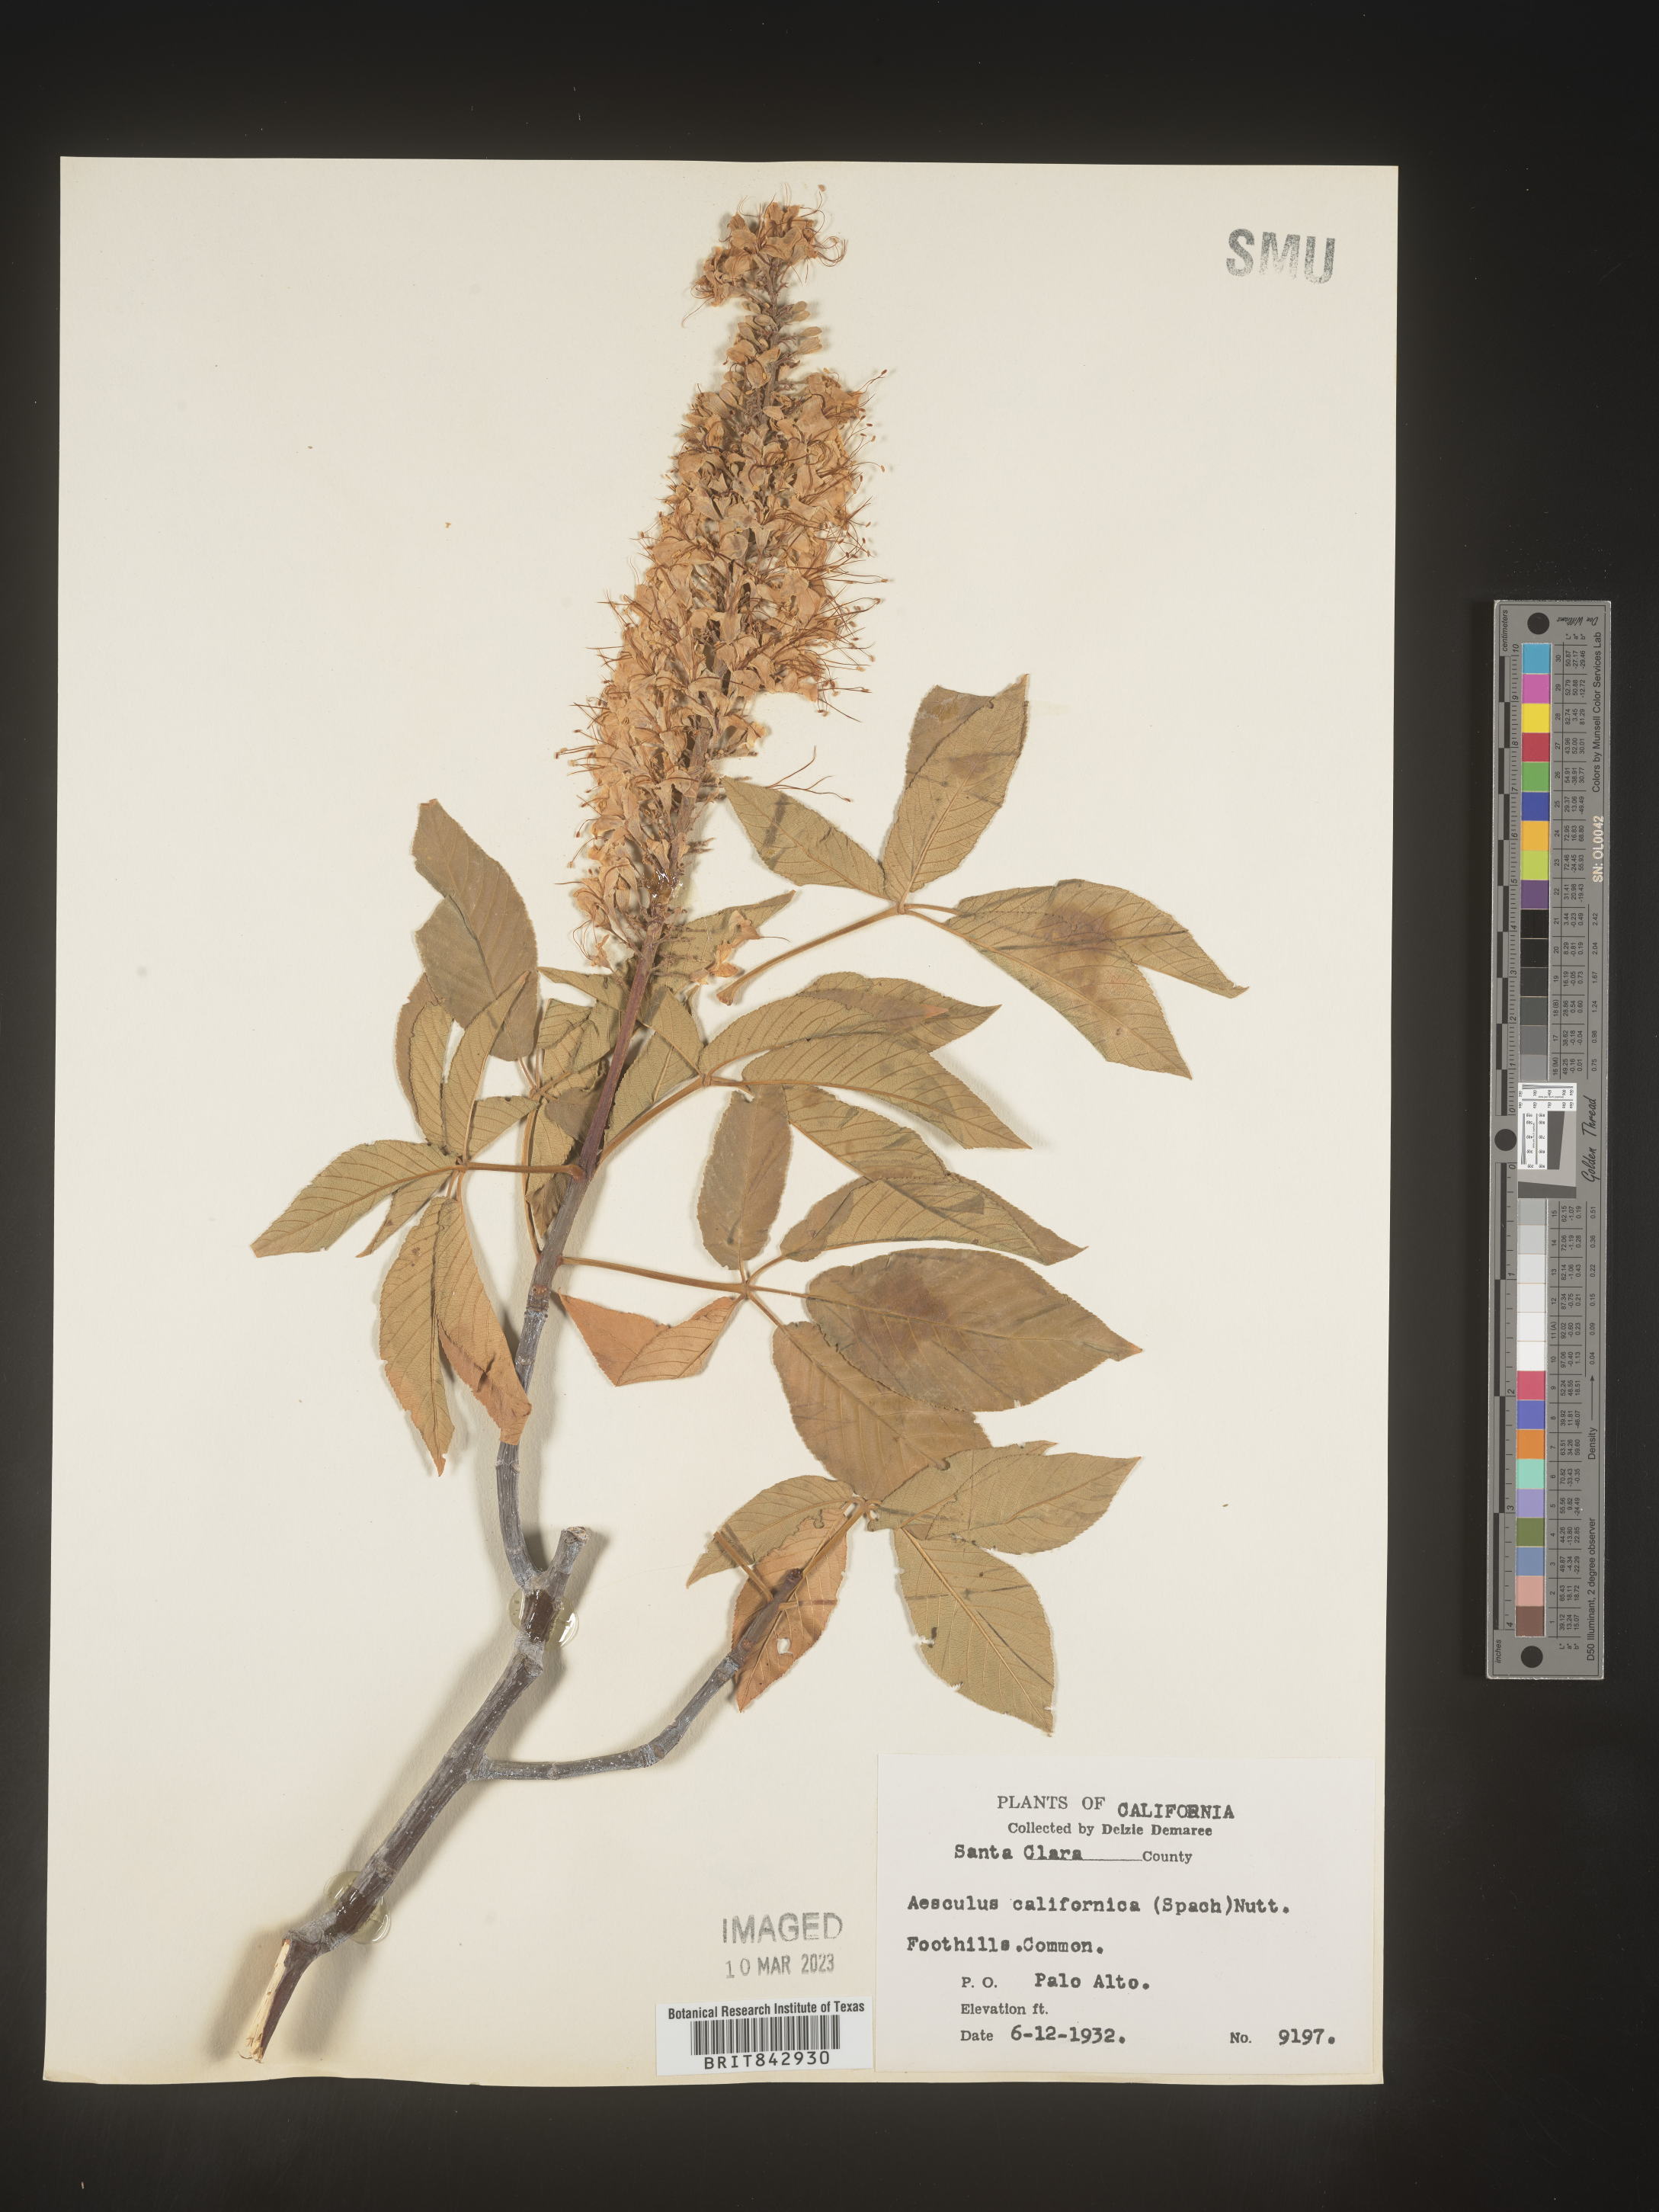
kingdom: Plantae
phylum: Tracheophyta
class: Magnoliopsida
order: Sapindales
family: Sapindaceae
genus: Aesculus
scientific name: Aesculus
